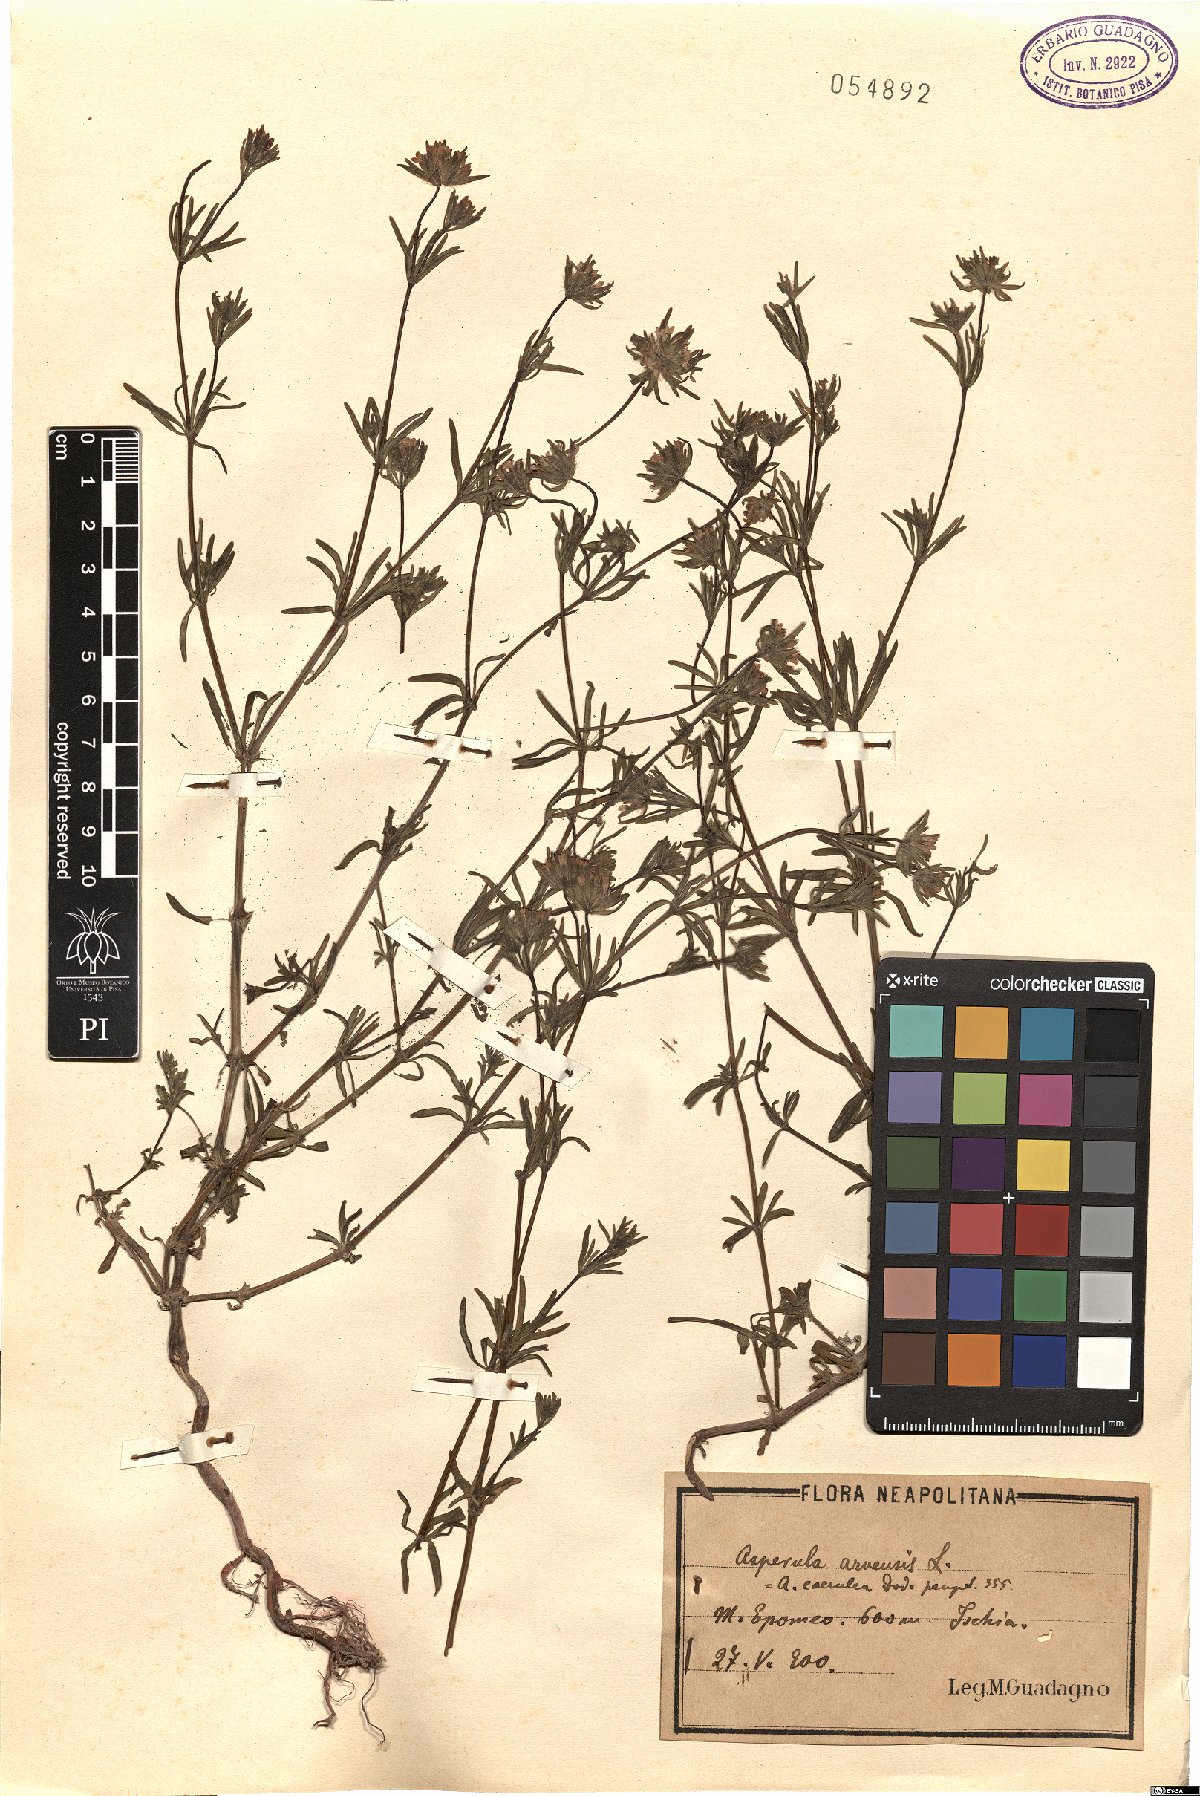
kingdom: Plantae
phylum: Tracheophyta
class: Magnoliopsida
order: Gentianales
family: Rubiaceae
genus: Asperula
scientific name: Asperula arvensis
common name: Blue woodruff
